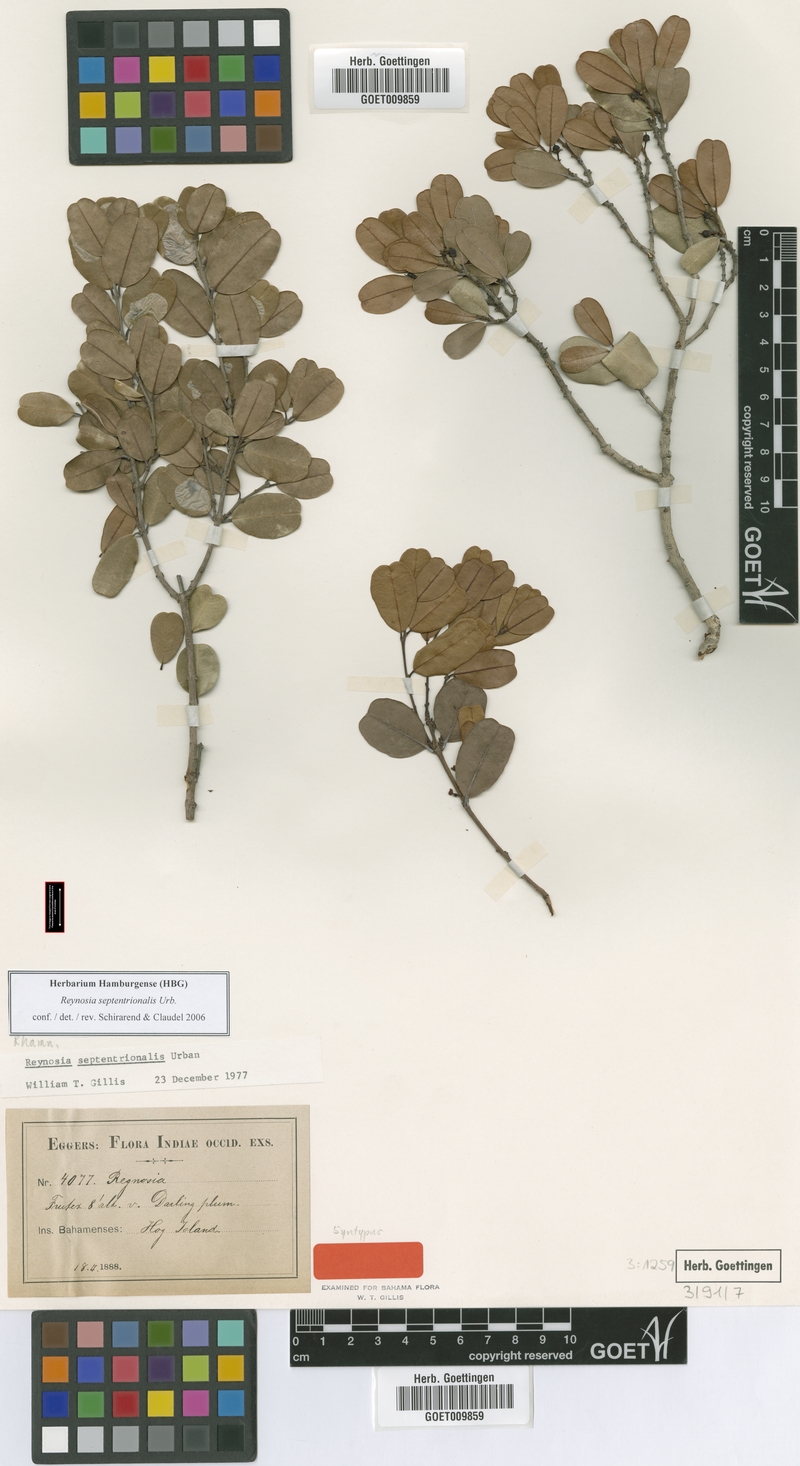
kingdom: Plantae
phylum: Tracheophyta
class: Magnoliopsida
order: Rosales
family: Rhamnaceae
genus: Reynosia
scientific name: Reynosia septentrionalis
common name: Red ironwood
